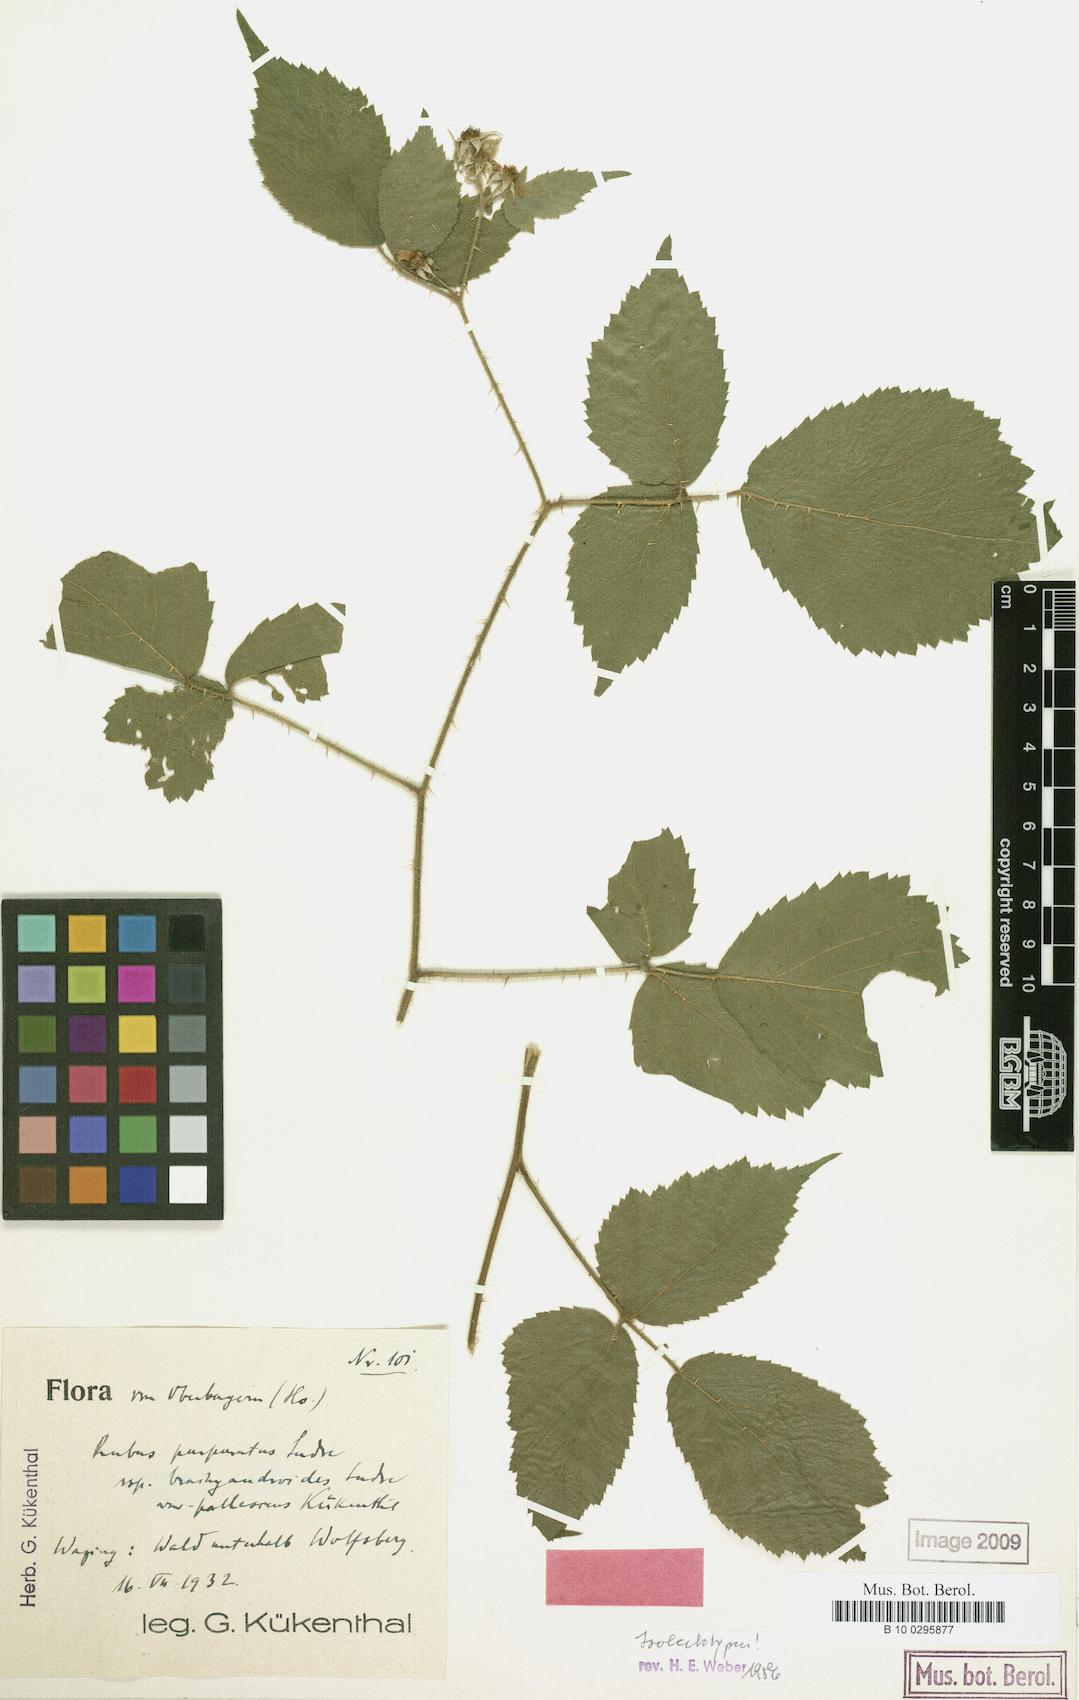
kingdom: Plantae
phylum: Tracheophyta
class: Magnoliopsida
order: Rosales
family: Rosaceae
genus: Rubus
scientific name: Rubus amphistrophos
